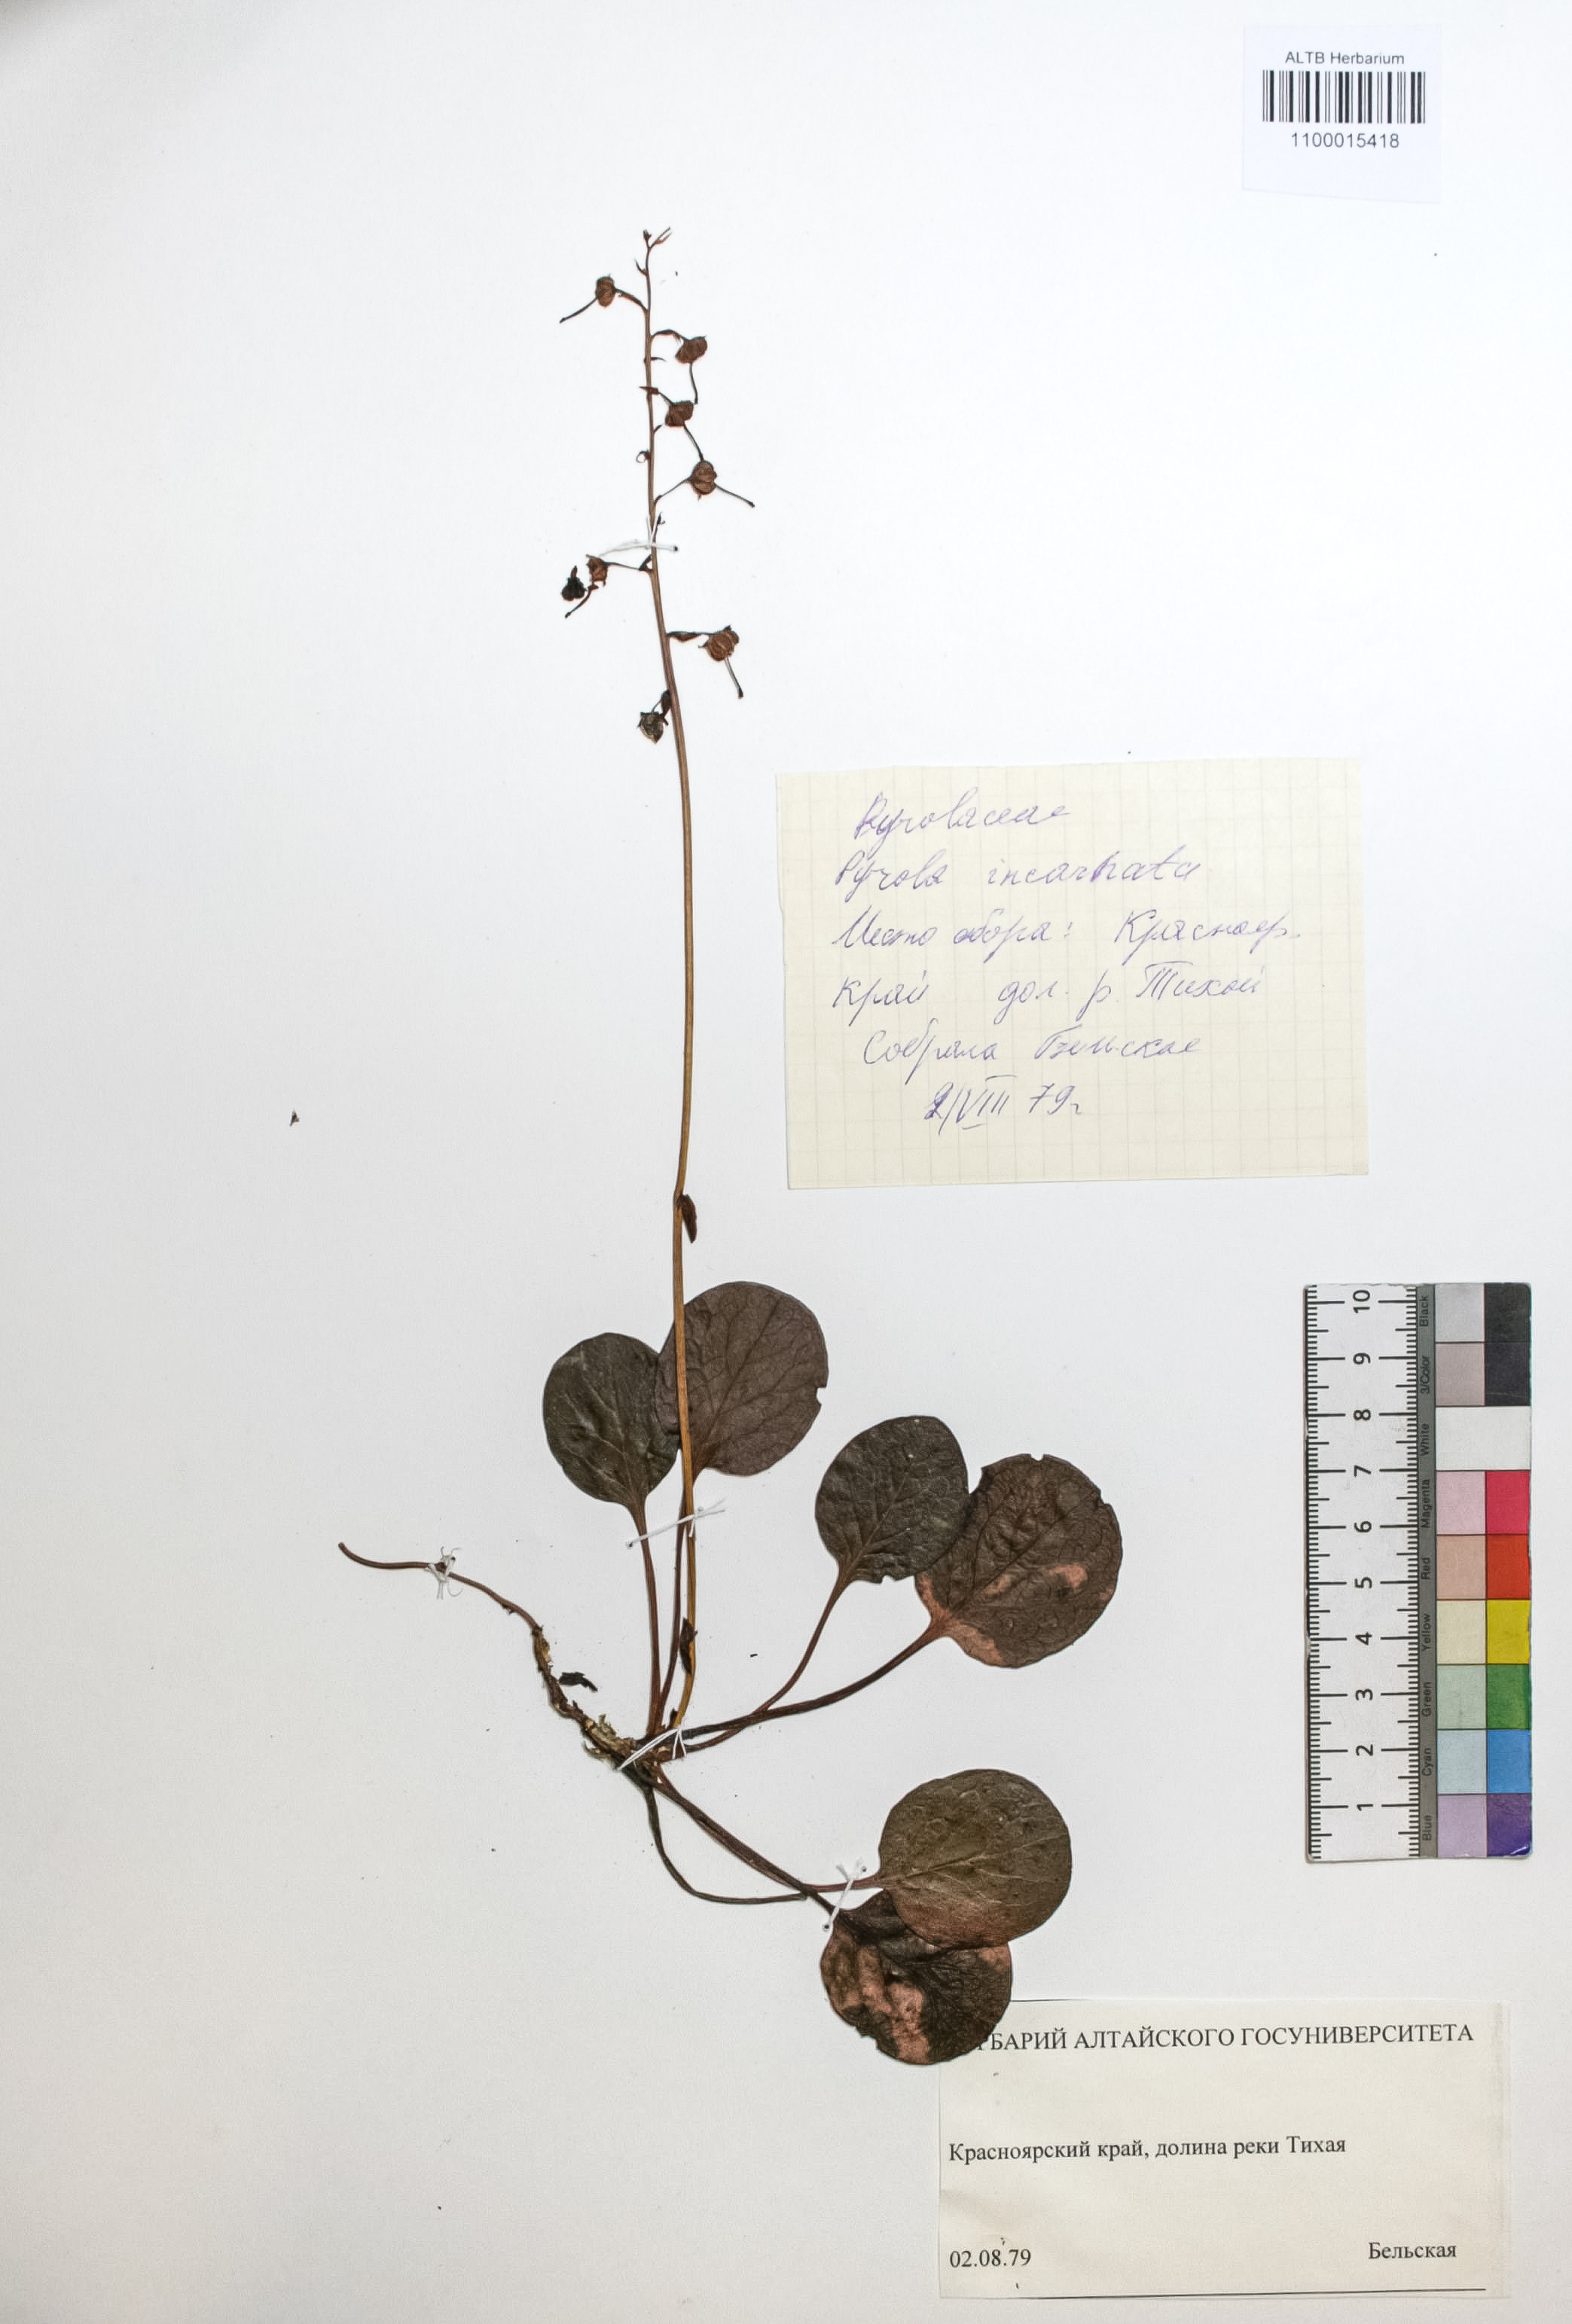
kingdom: Plantae
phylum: Tracheophyta
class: Magnoliopsida
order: Ericales
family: Ericaceae
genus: Pyrola
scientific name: Pyrola asarifolia
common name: Bog wintergreen
